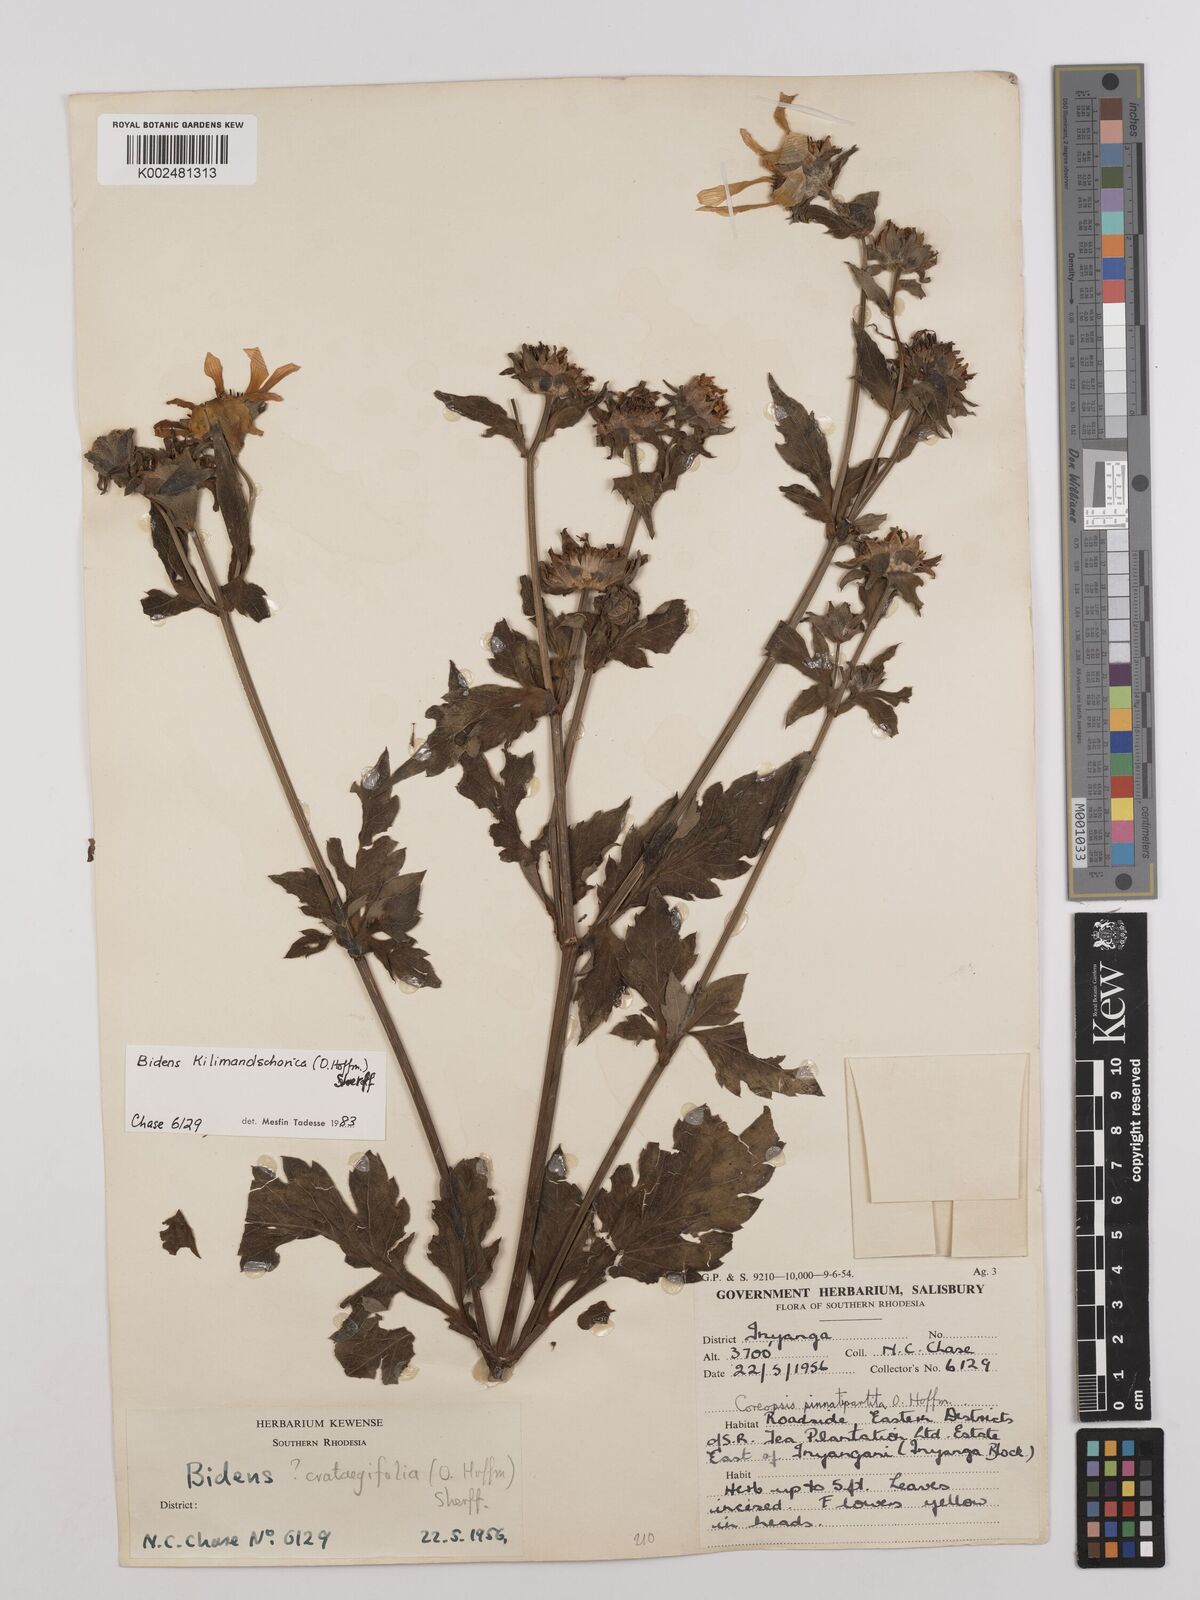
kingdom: Plantae
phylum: Tracheophyta
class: Magnoliopsida
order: Asterales
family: Asteraceae
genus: Bidens
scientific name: Bidens kilimandscharica
